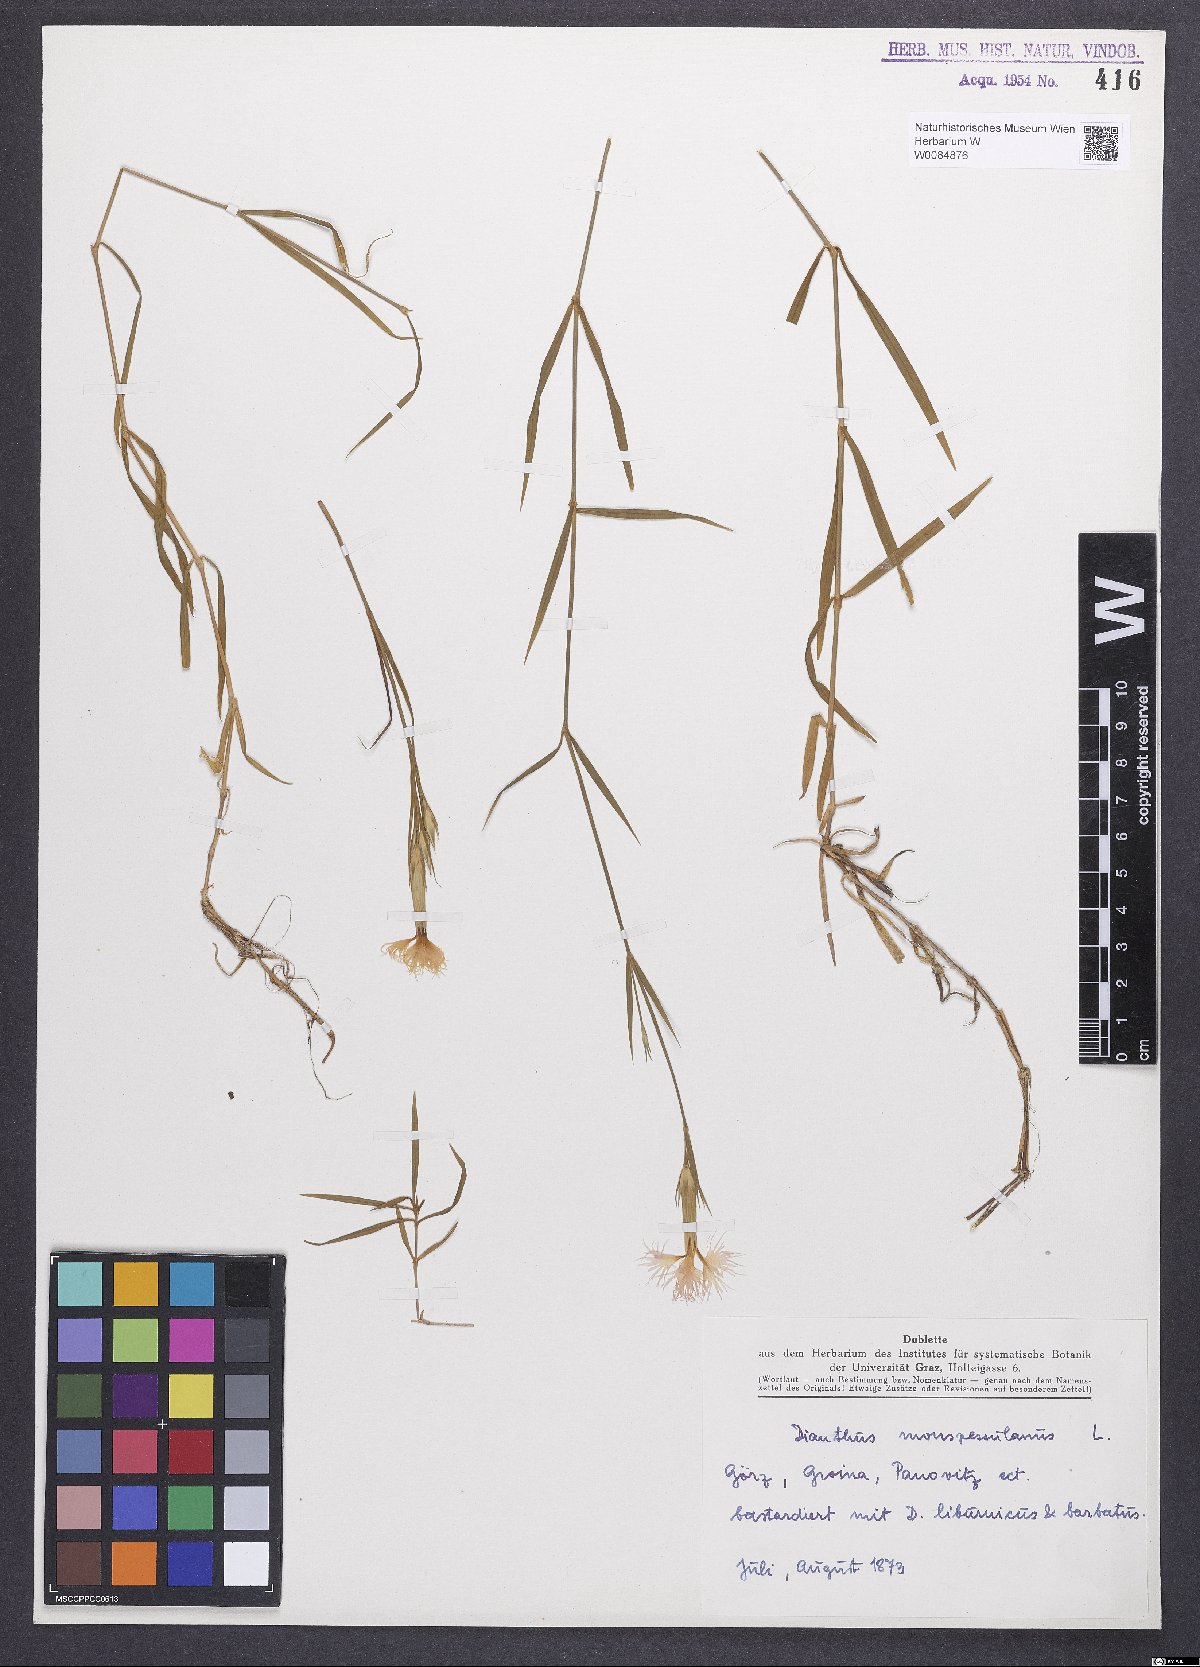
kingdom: Plantae
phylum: Tracheophyta
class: Magnoliopsida
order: Caryophyllales
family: Caryophyllaceae
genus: Dianthus
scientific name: Dianthus hyssopifolius
